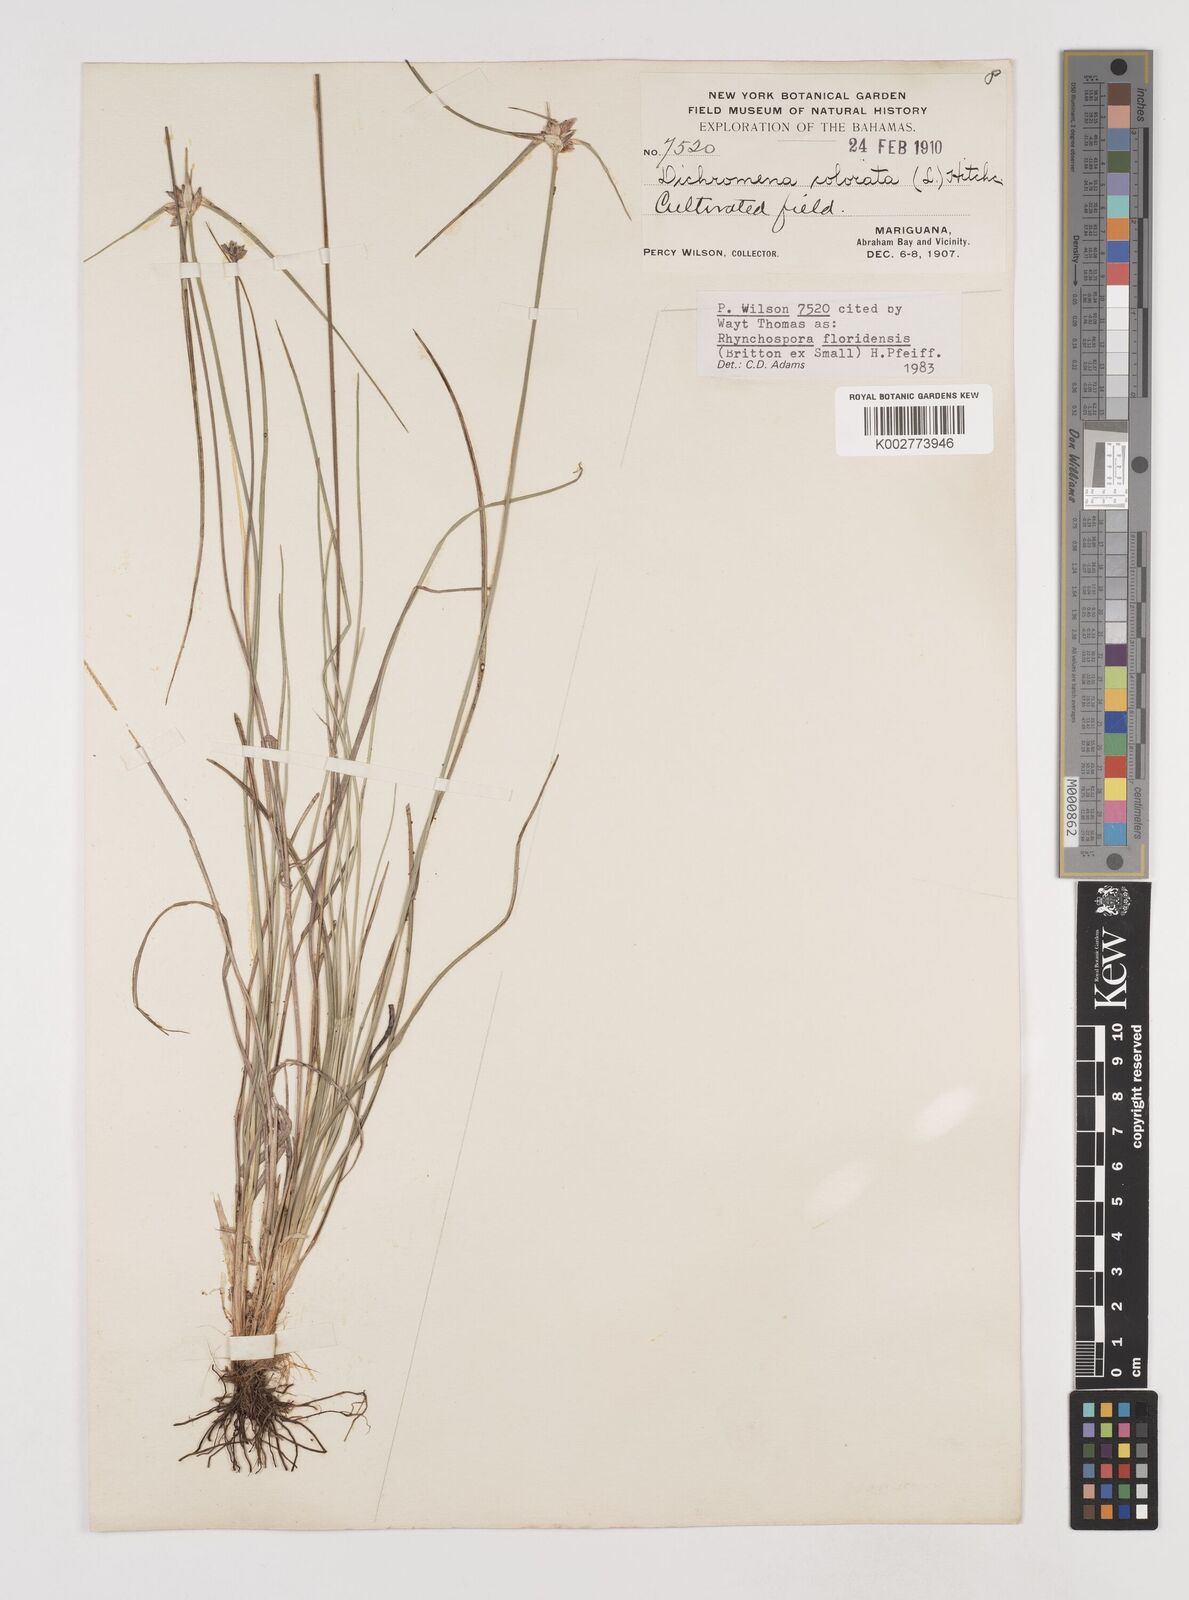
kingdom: Plantae
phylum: Tracheophyta
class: Liliopsida
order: Poales
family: Cyperaceae
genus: Rhynchospora
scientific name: Rhynchospora floridensis
